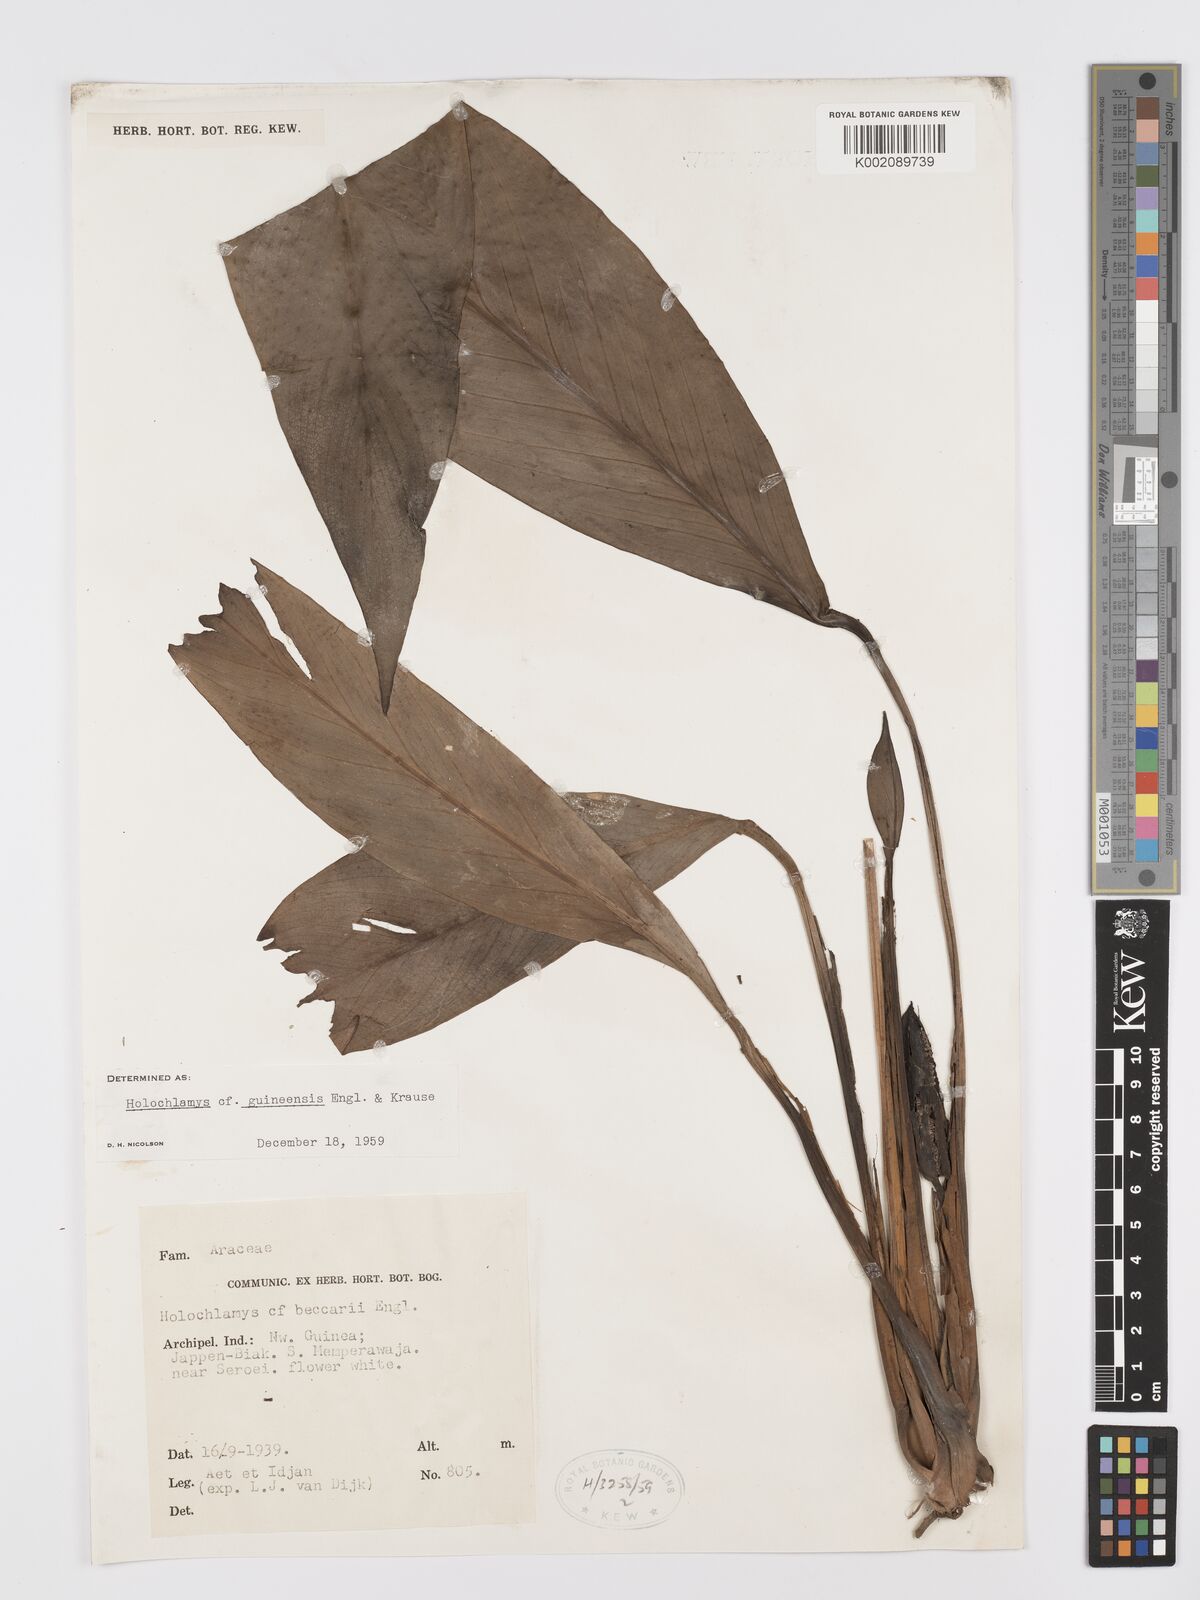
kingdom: Plantae
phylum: Tracheophyta
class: Liliopsida
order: Alismatales
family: Araceae
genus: Holochlamys
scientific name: Holochlamys beccarii
